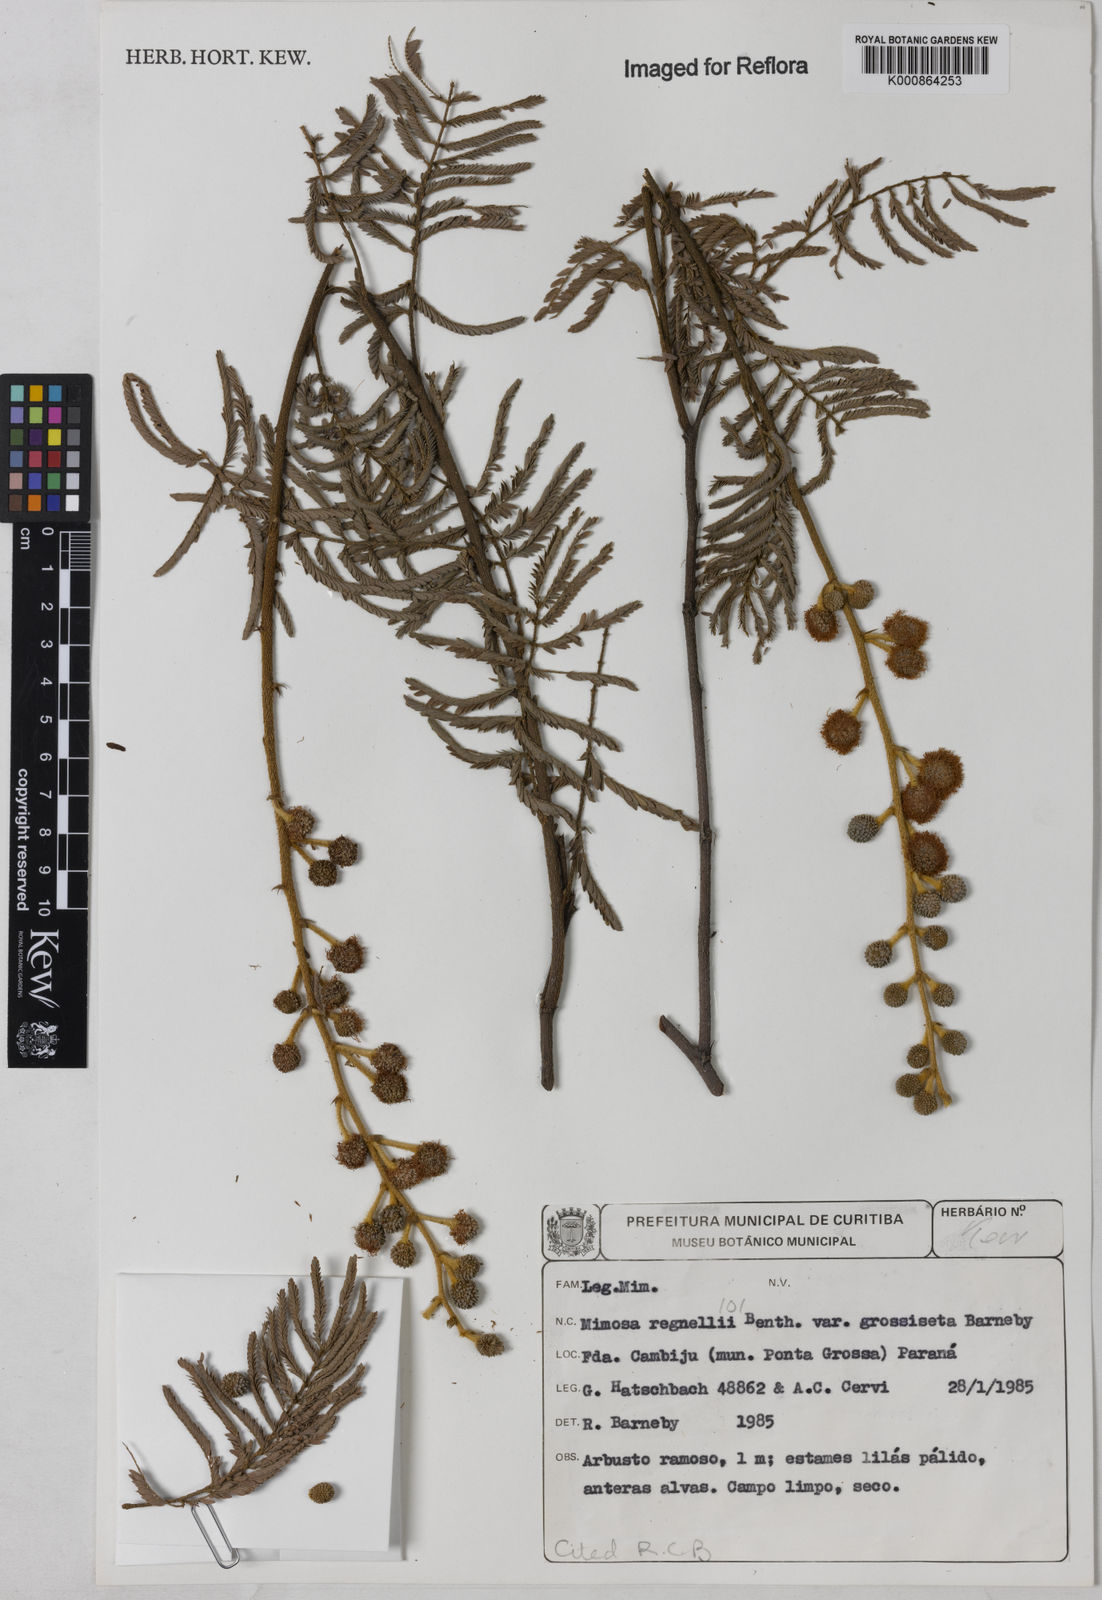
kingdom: Plantae
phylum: Tracheophyta
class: Magnoliopsida
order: Fabales
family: Fabaceae
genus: Mimosa
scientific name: Mimosa regnellii
